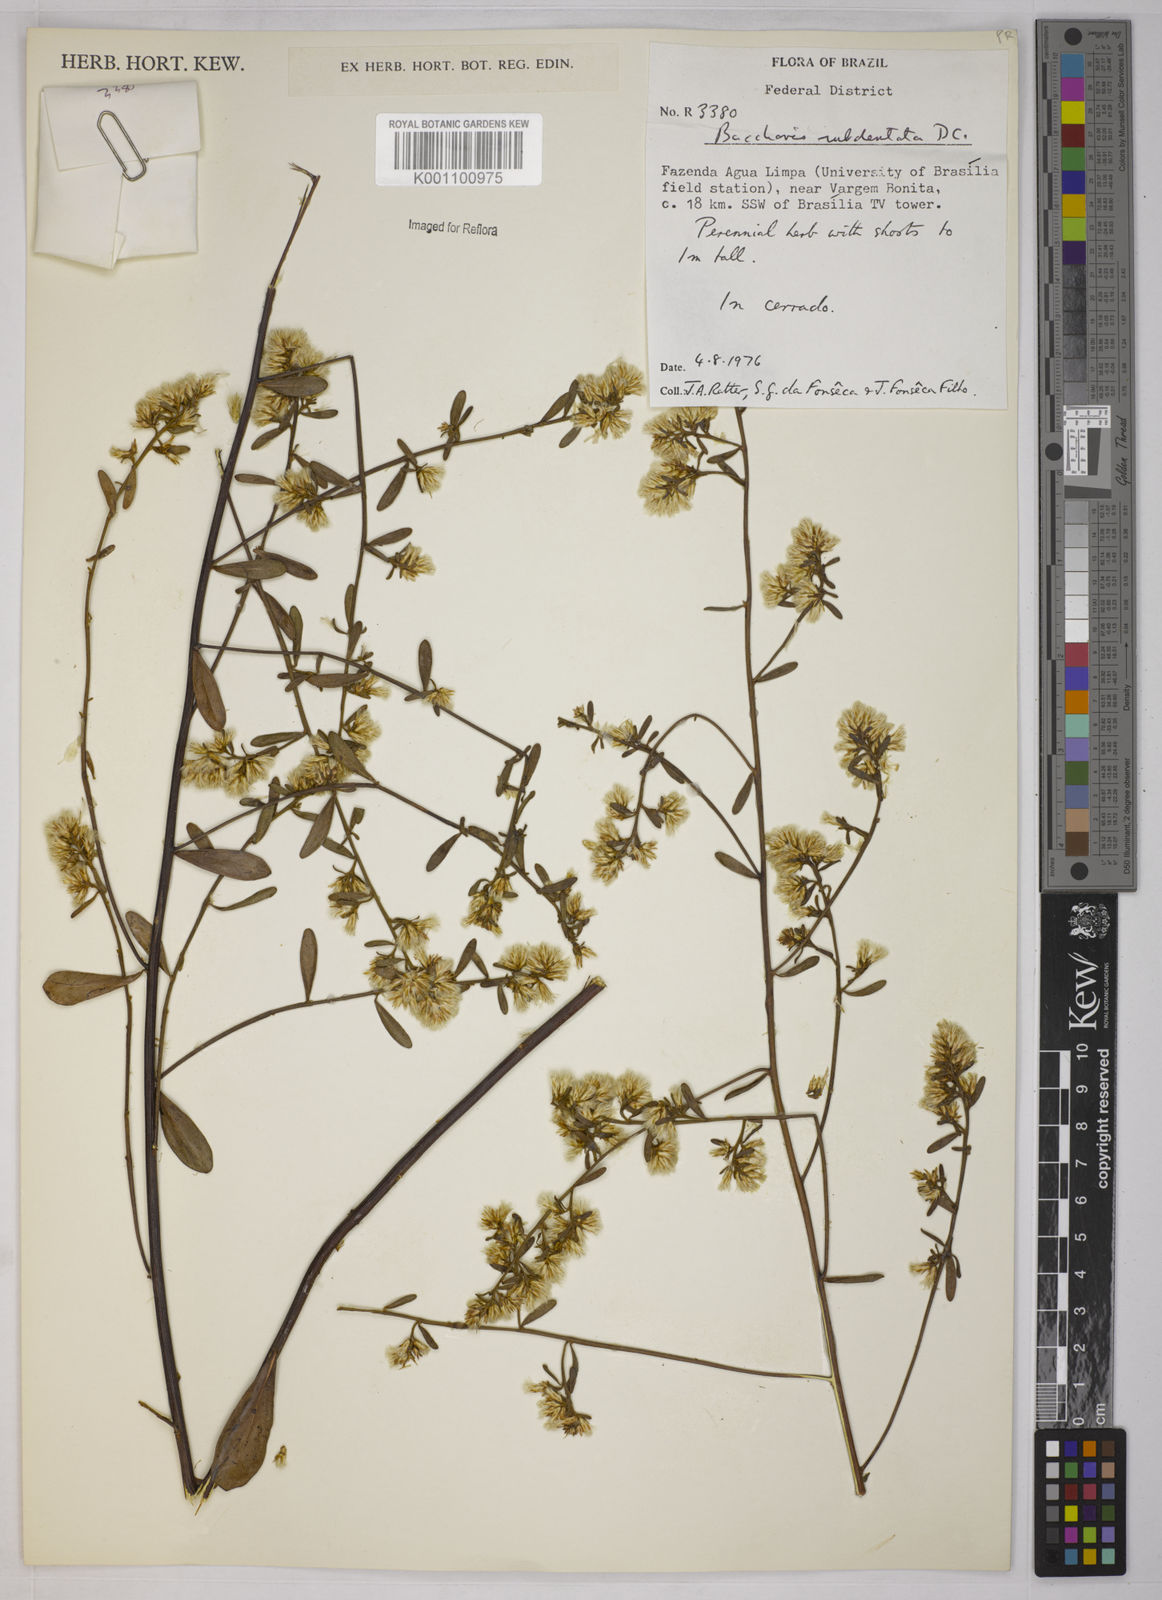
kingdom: Plantae
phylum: Tracheophyta
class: Magnoliopsida
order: Asterales
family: Asteraceae
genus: Baccharis
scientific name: Baccharis subdentata
